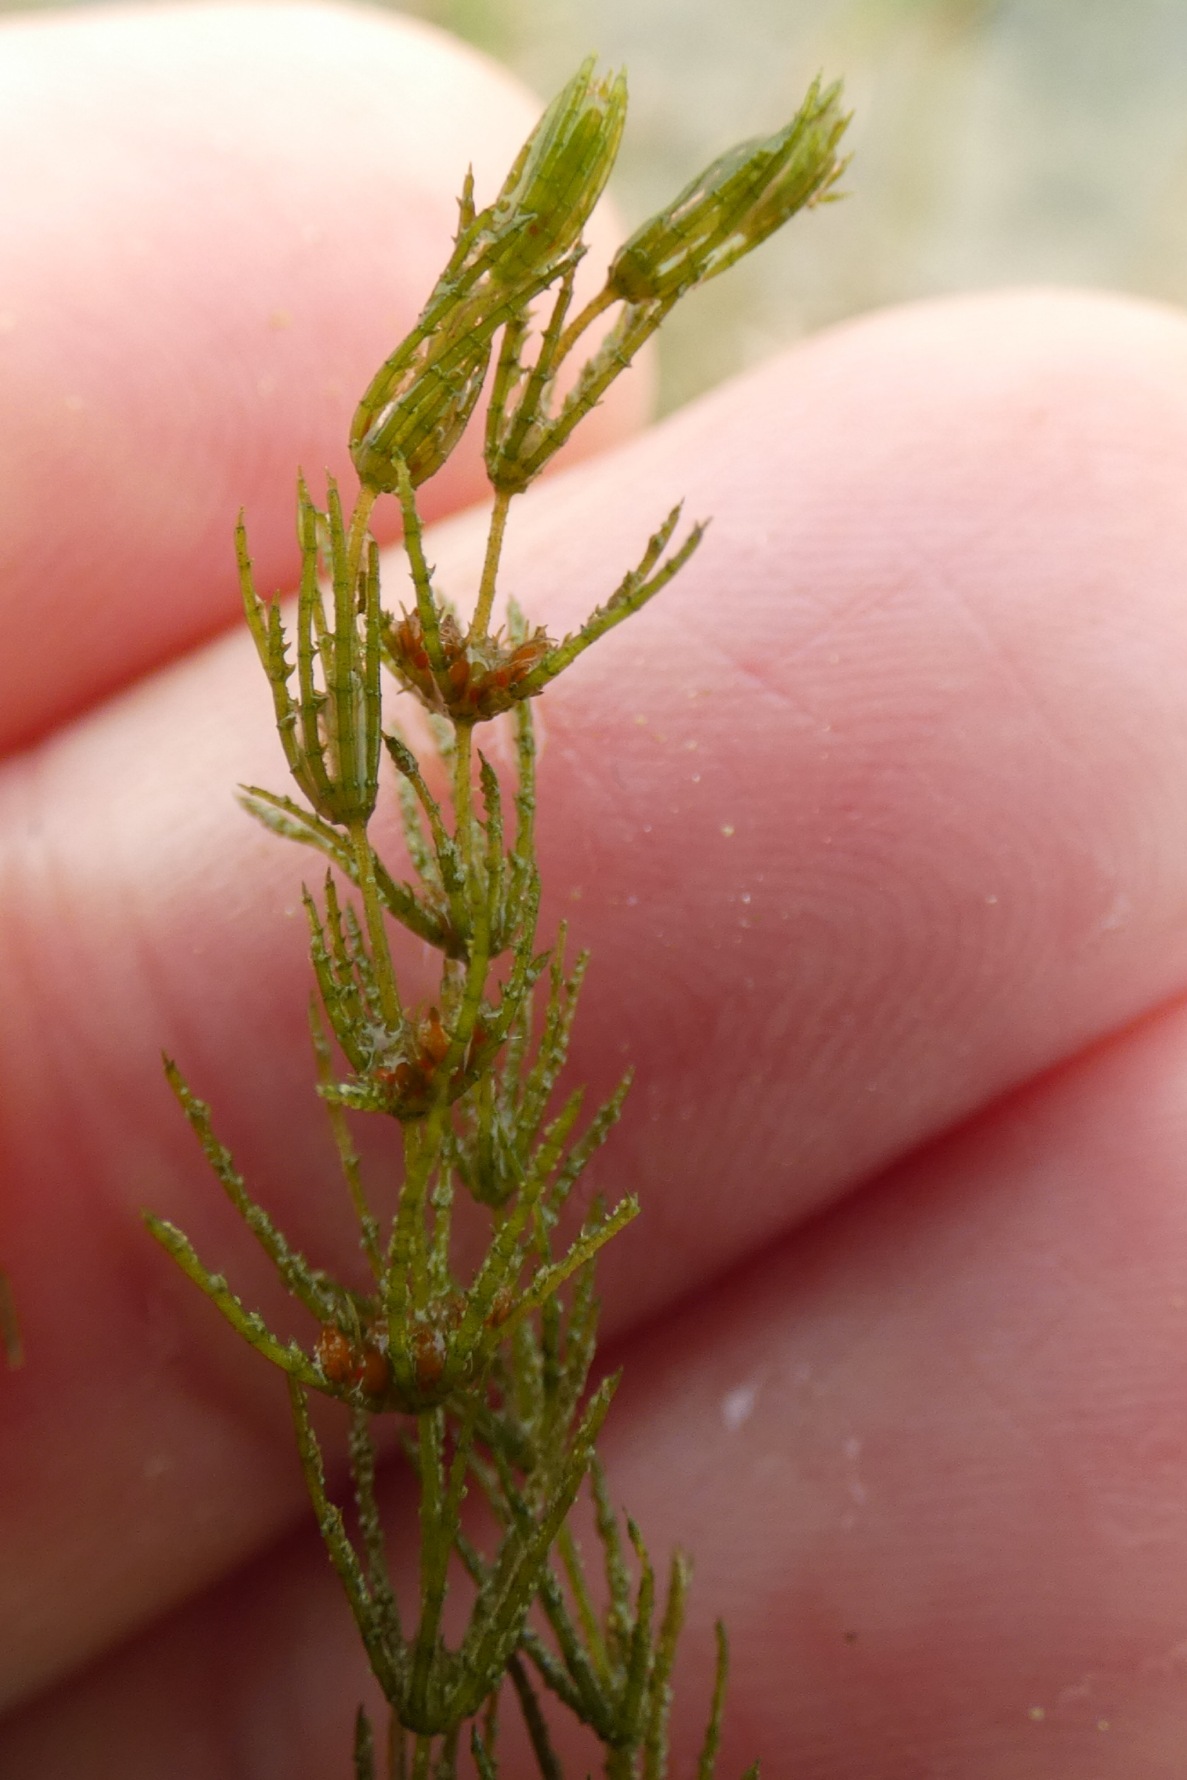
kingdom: Plantae
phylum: Charophyta
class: Charophyceae
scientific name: Charophyceae
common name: Kransnålalger
